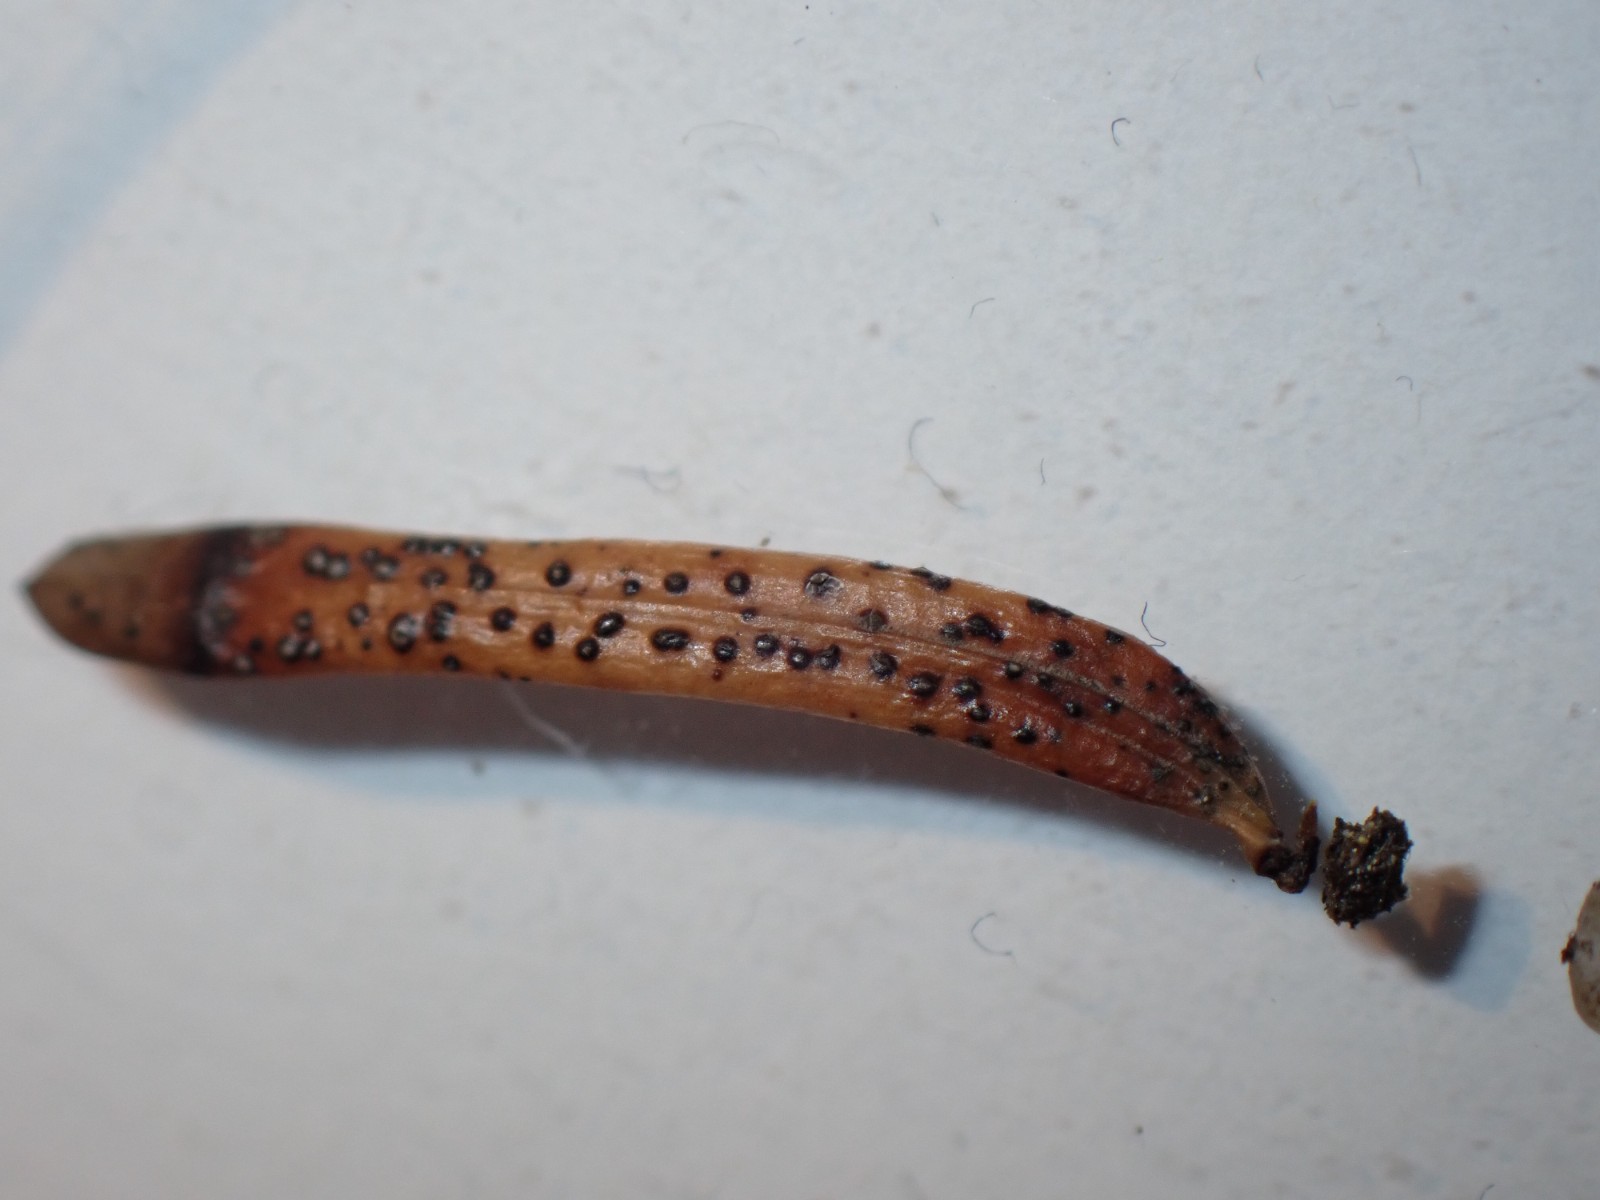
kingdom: Fungi
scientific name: Fungi
